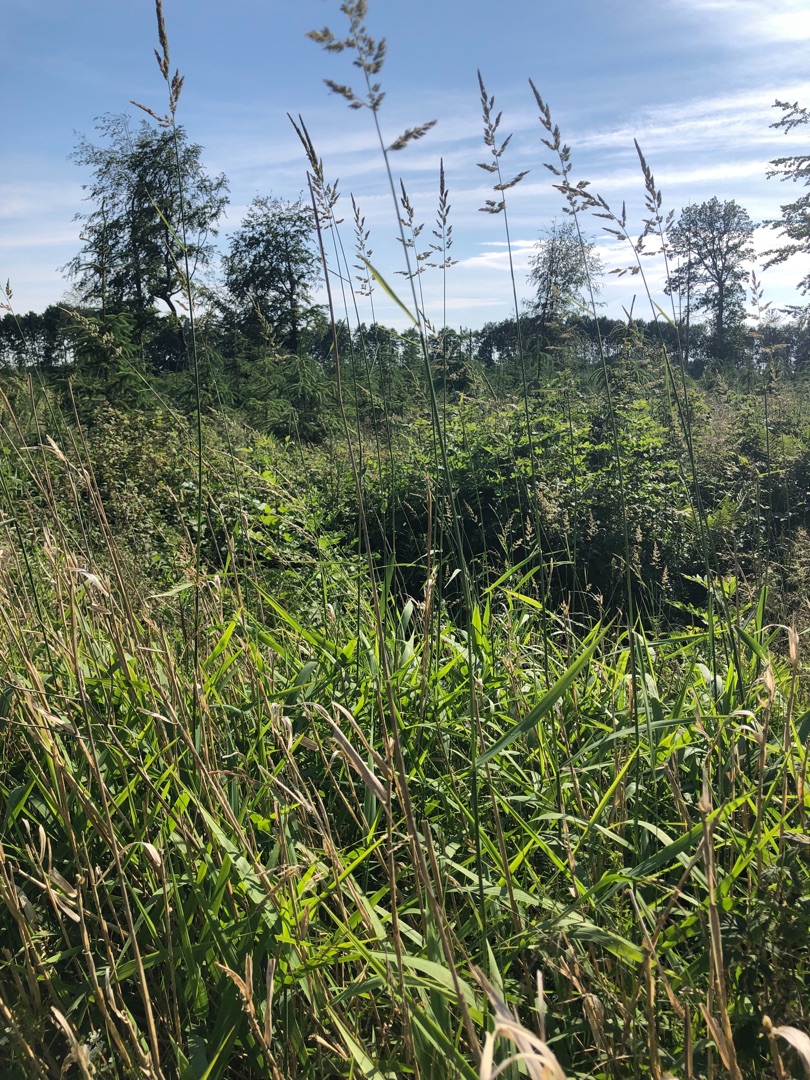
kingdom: Plantae
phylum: Tracheophyta
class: Liliopsida
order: Poales
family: Poaceae
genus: Phalaris
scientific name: Phalaris arundinacea
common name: Rørgræs
